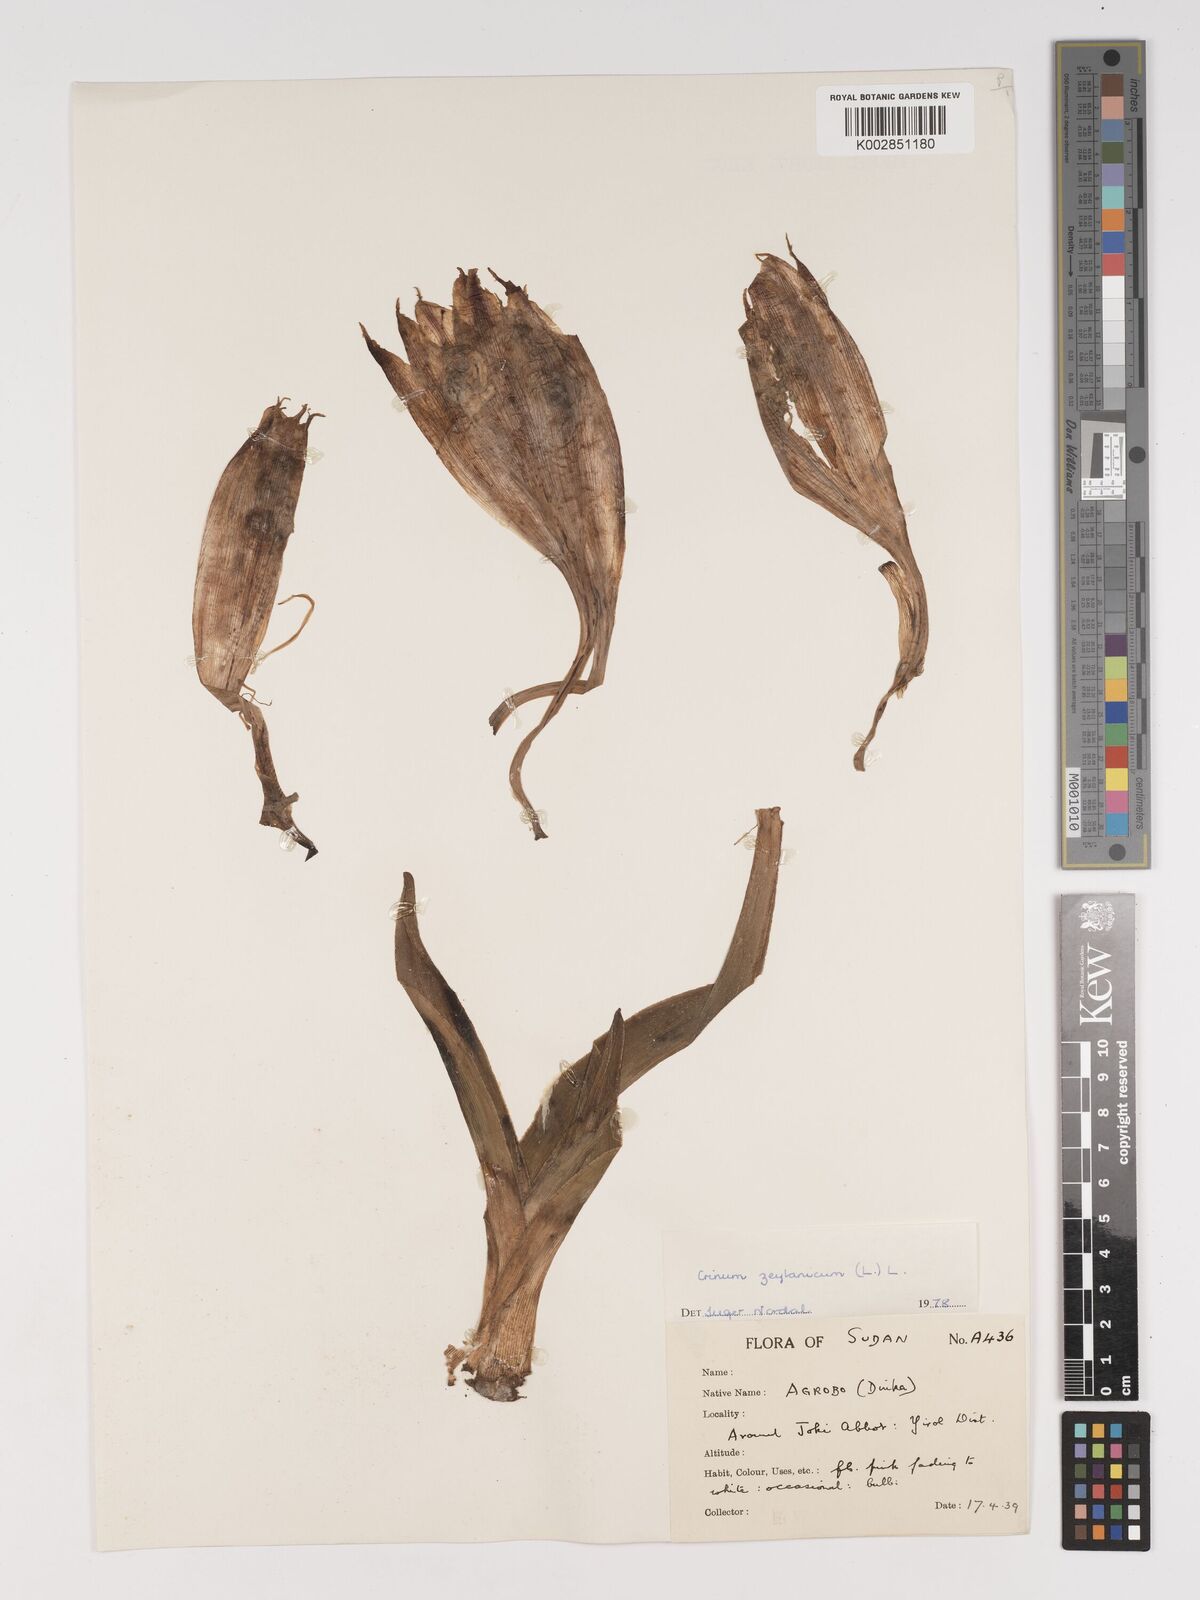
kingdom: Plantae
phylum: Tracheophyta
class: Liliopsida
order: Asparagales
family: Amaryllidaceae
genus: Crinum
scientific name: Crinum zeylanicum
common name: Ceylon swamplily
